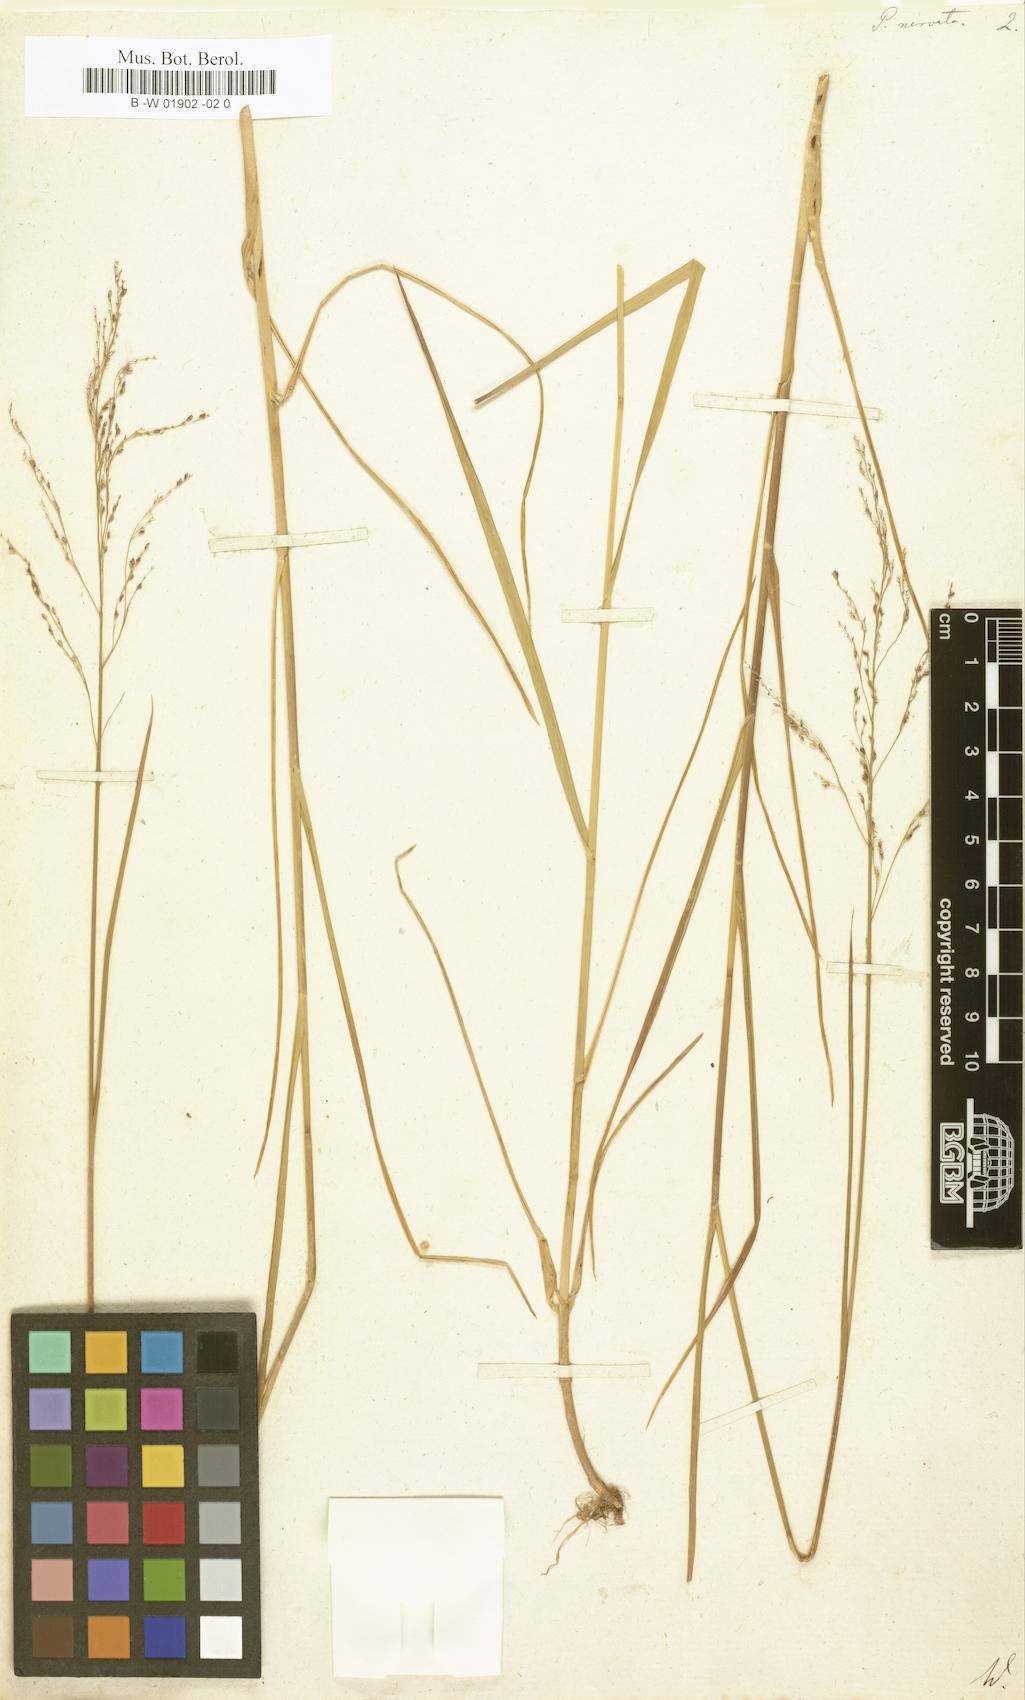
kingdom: Plantae
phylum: Tracheophyta
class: Liliopsida
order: Poales
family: Poaceae
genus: Glyceria
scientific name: Glyceria striata
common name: Fowl manna grass
